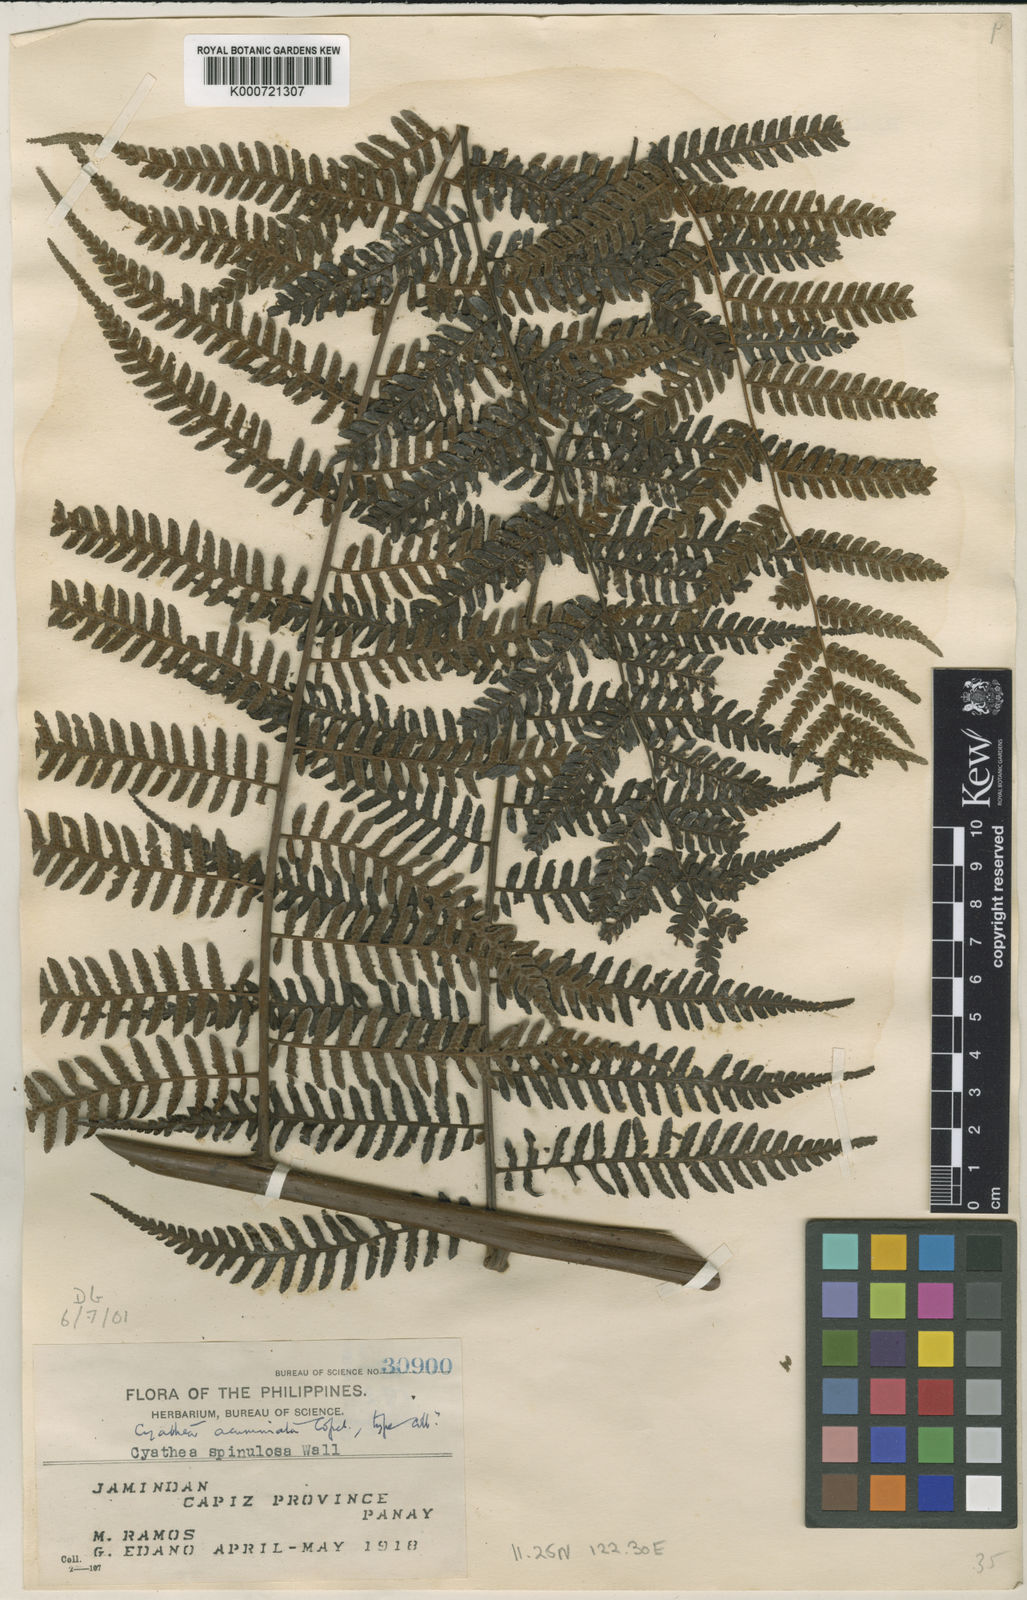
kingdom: Plantae
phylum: Tracheophyta
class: Polypodiopsida
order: Cyatheales
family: Cyatheaceae
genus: Alsophila
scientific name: Alsophila acuminata
